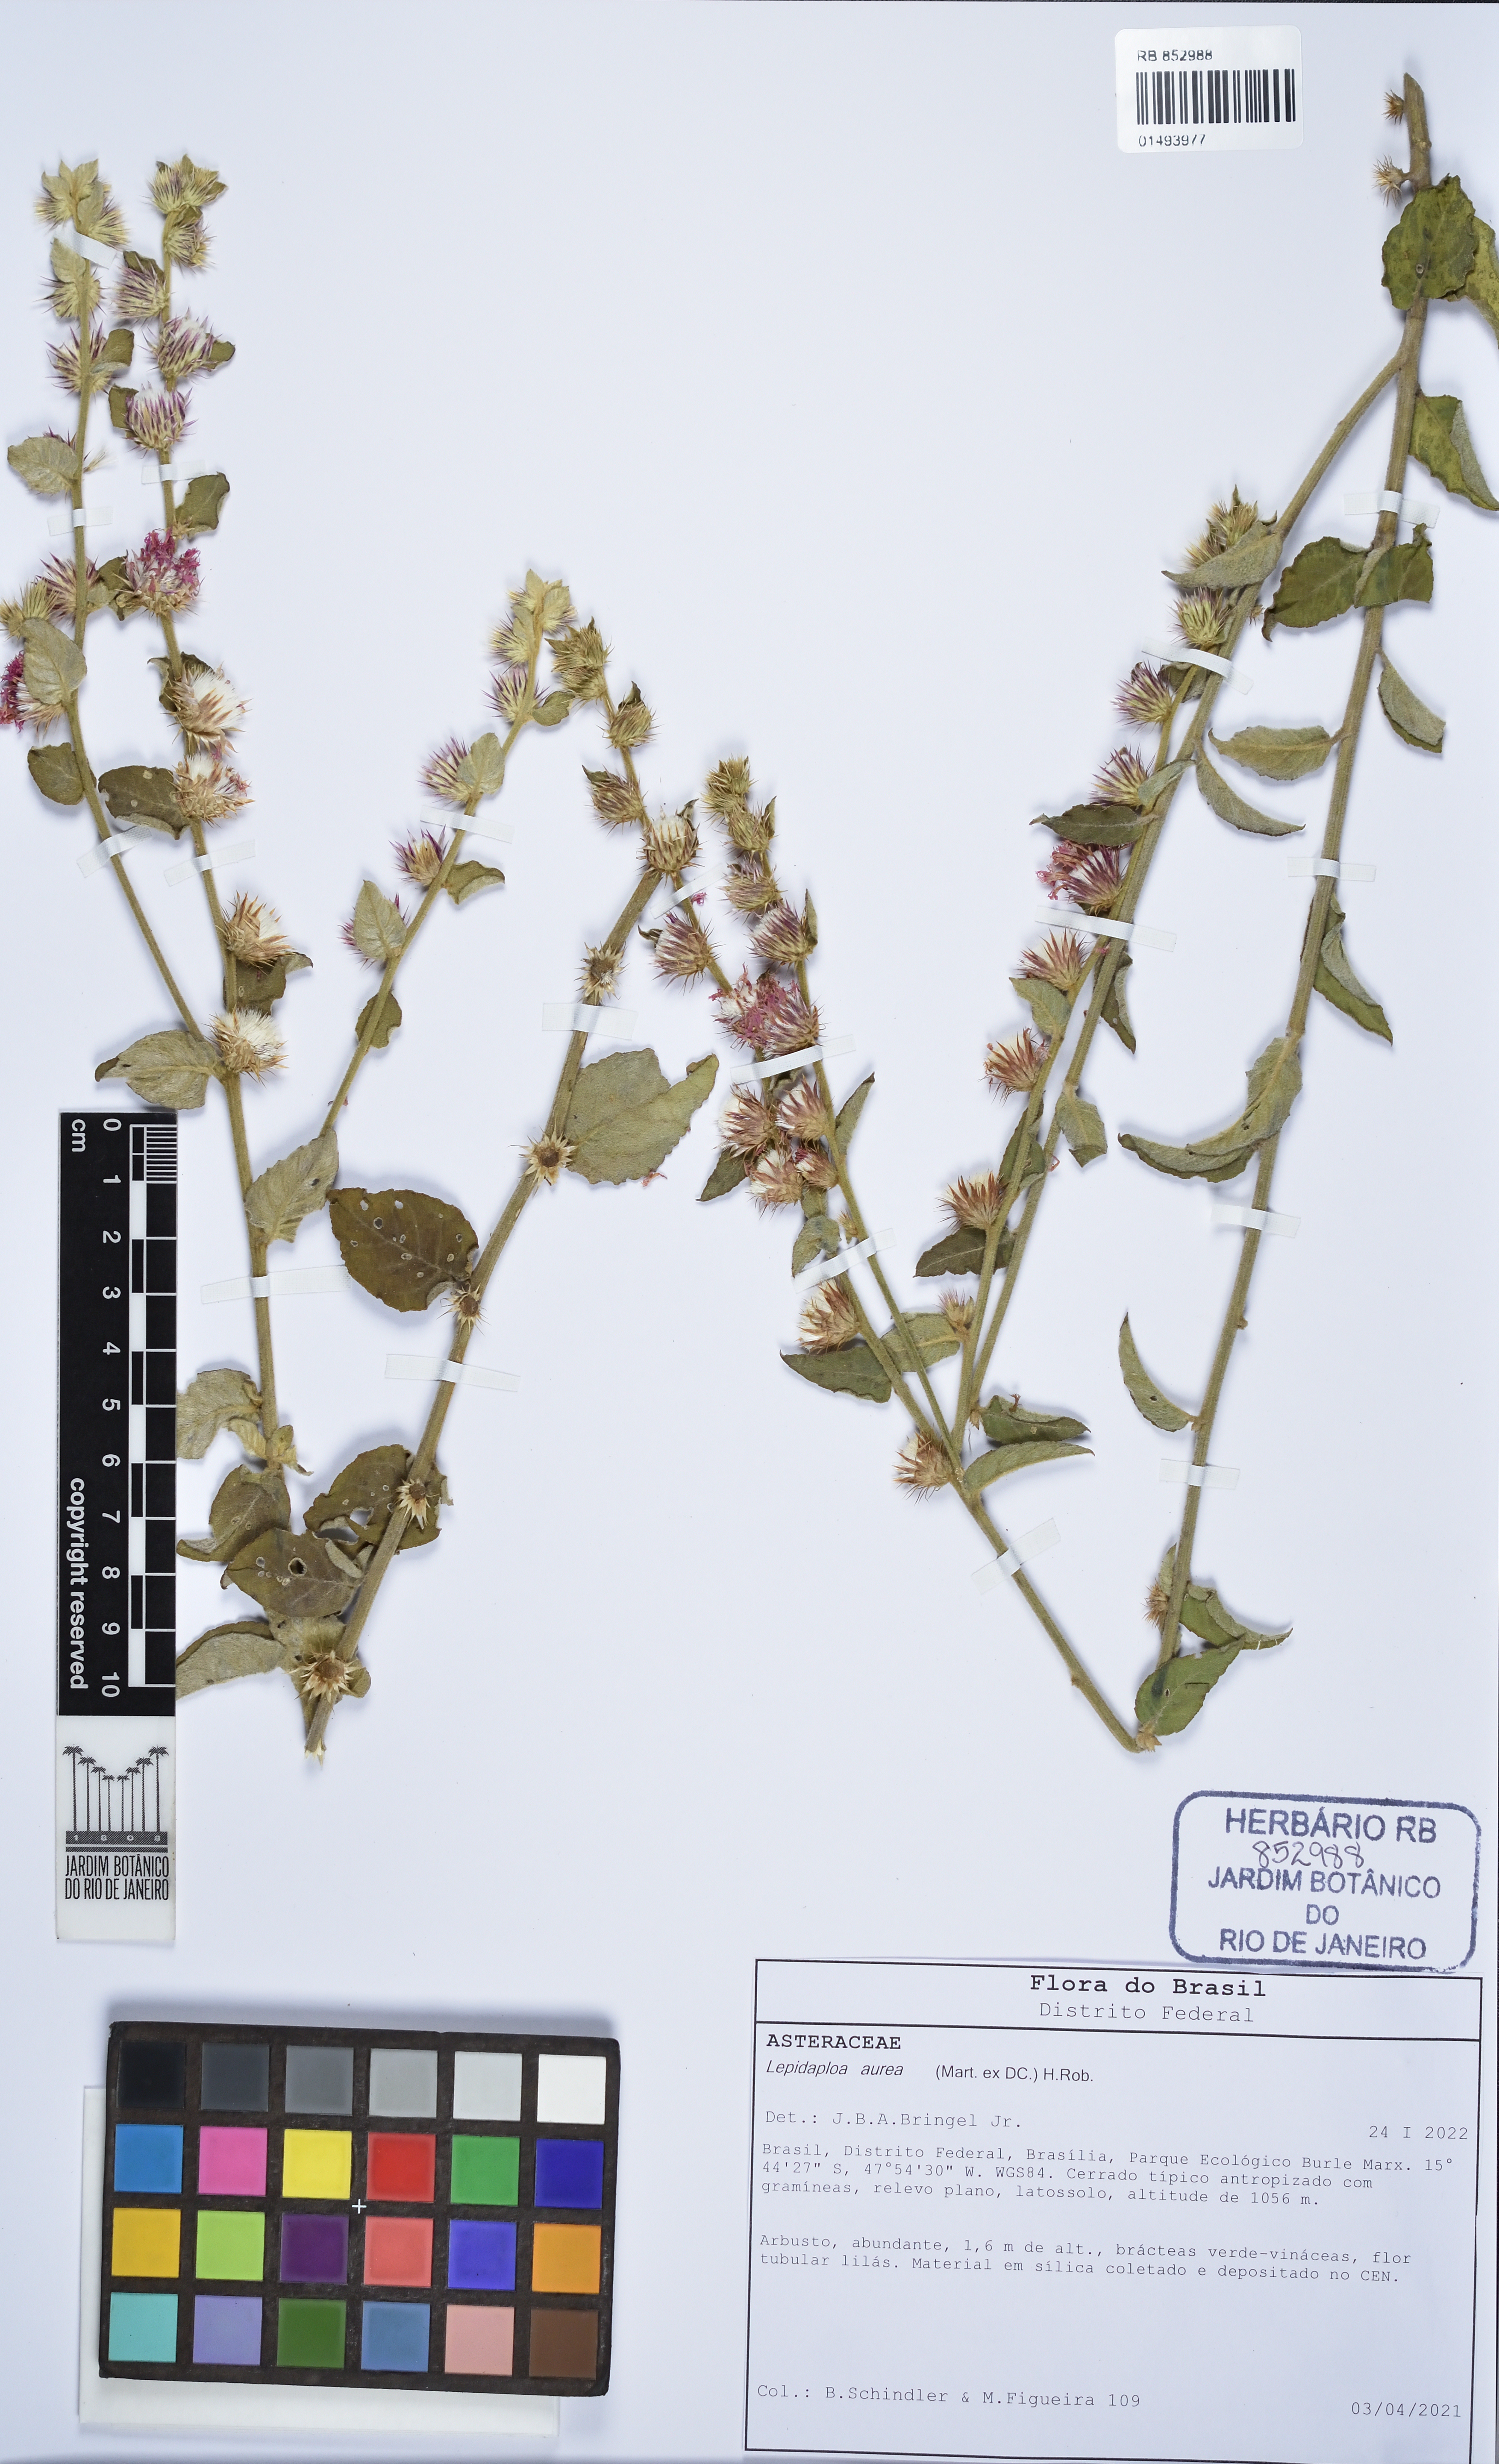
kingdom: Plantae
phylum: Tracheophyta
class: Magnoliopsida
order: Asterales
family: Asteraceae
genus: Lepidaploa
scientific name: Lepidaploa aurea
